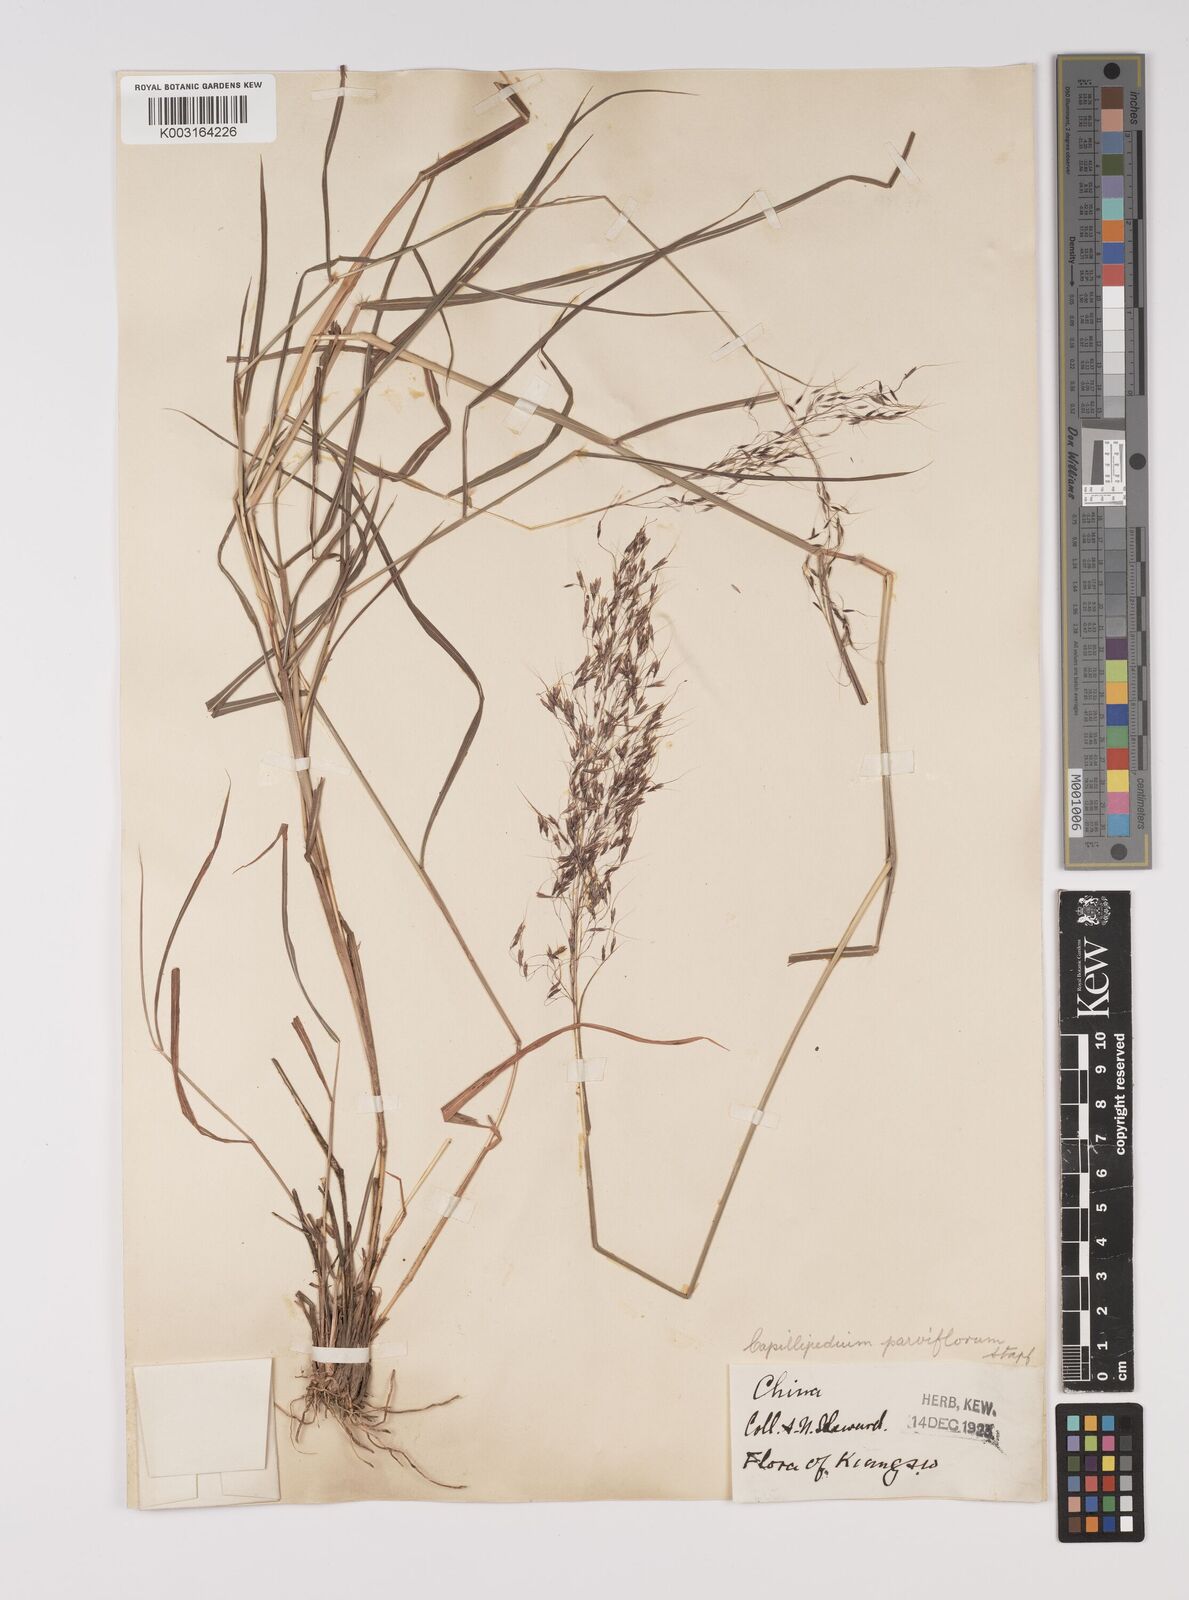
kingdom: Plantae
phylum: Tracheophyta
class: Liliopsida
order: Poales
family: Poaceae
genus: Capillipedium
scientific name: Capillipedium parviflorum
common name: Golden-beard
